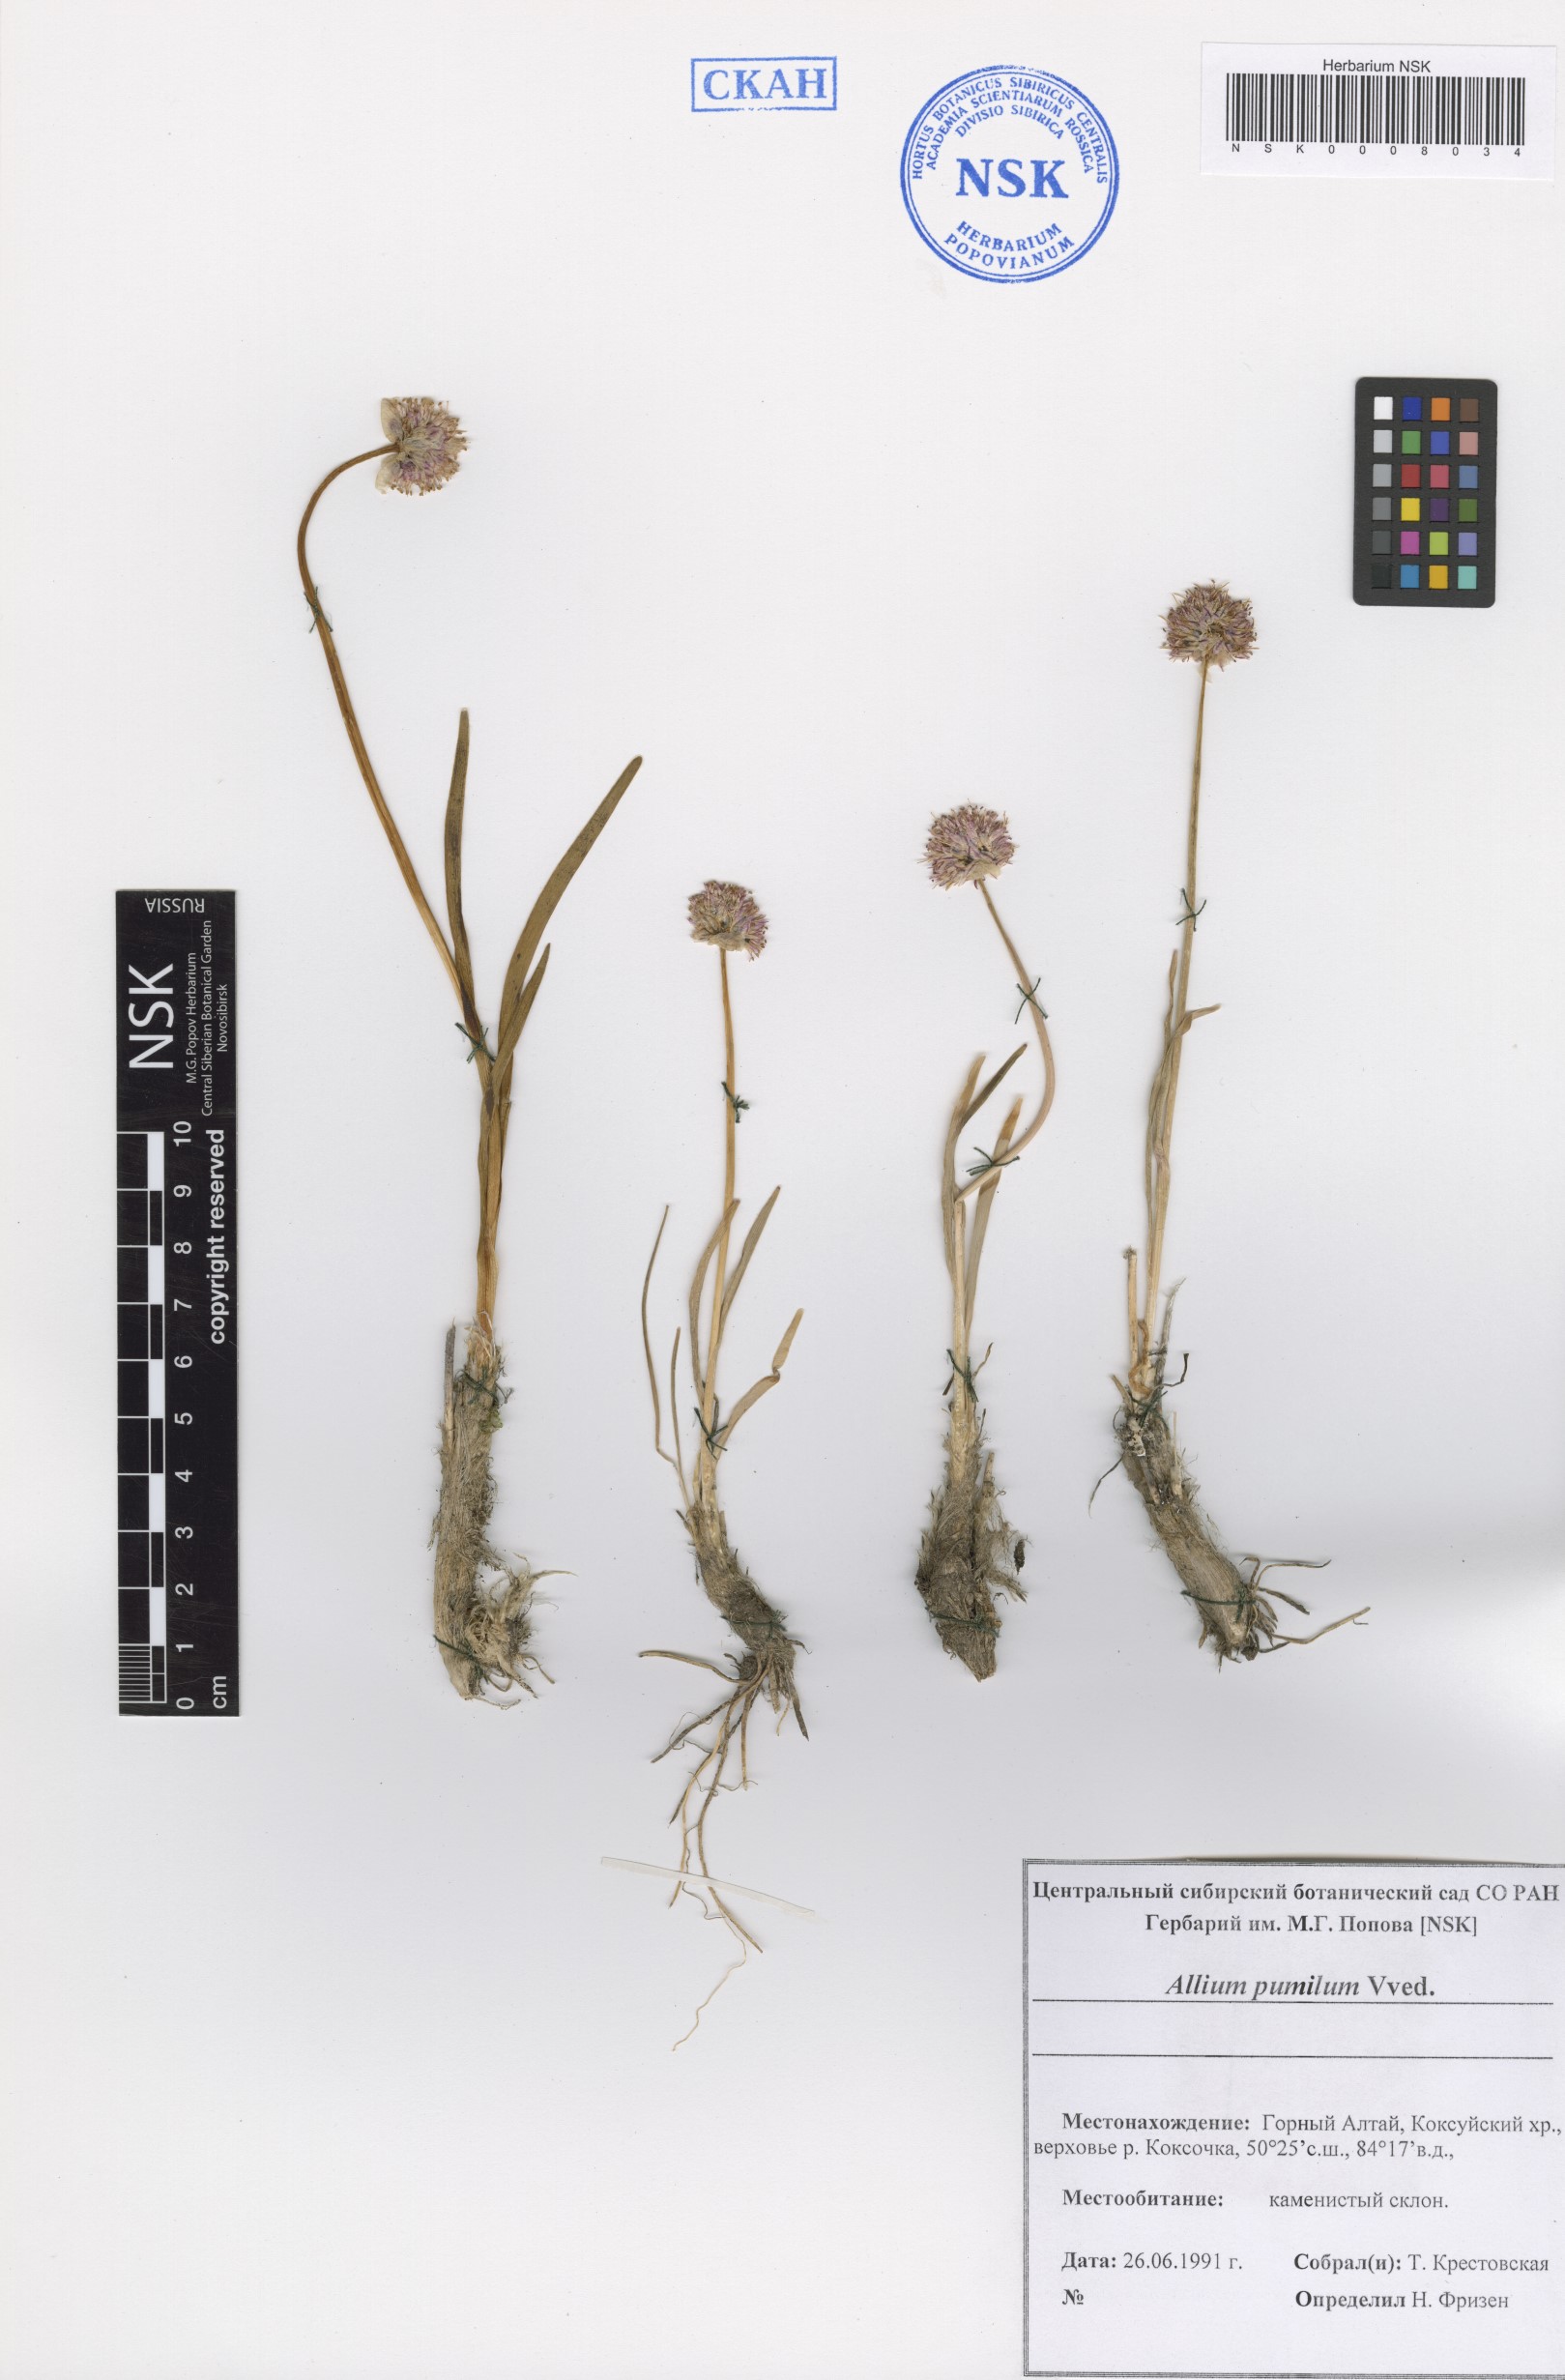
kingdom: Plantae
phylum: Tracheophyta
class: Liliopsida
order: Asparagales
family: Amaryllidaceae
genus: Allium
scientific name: Allium pumilum
